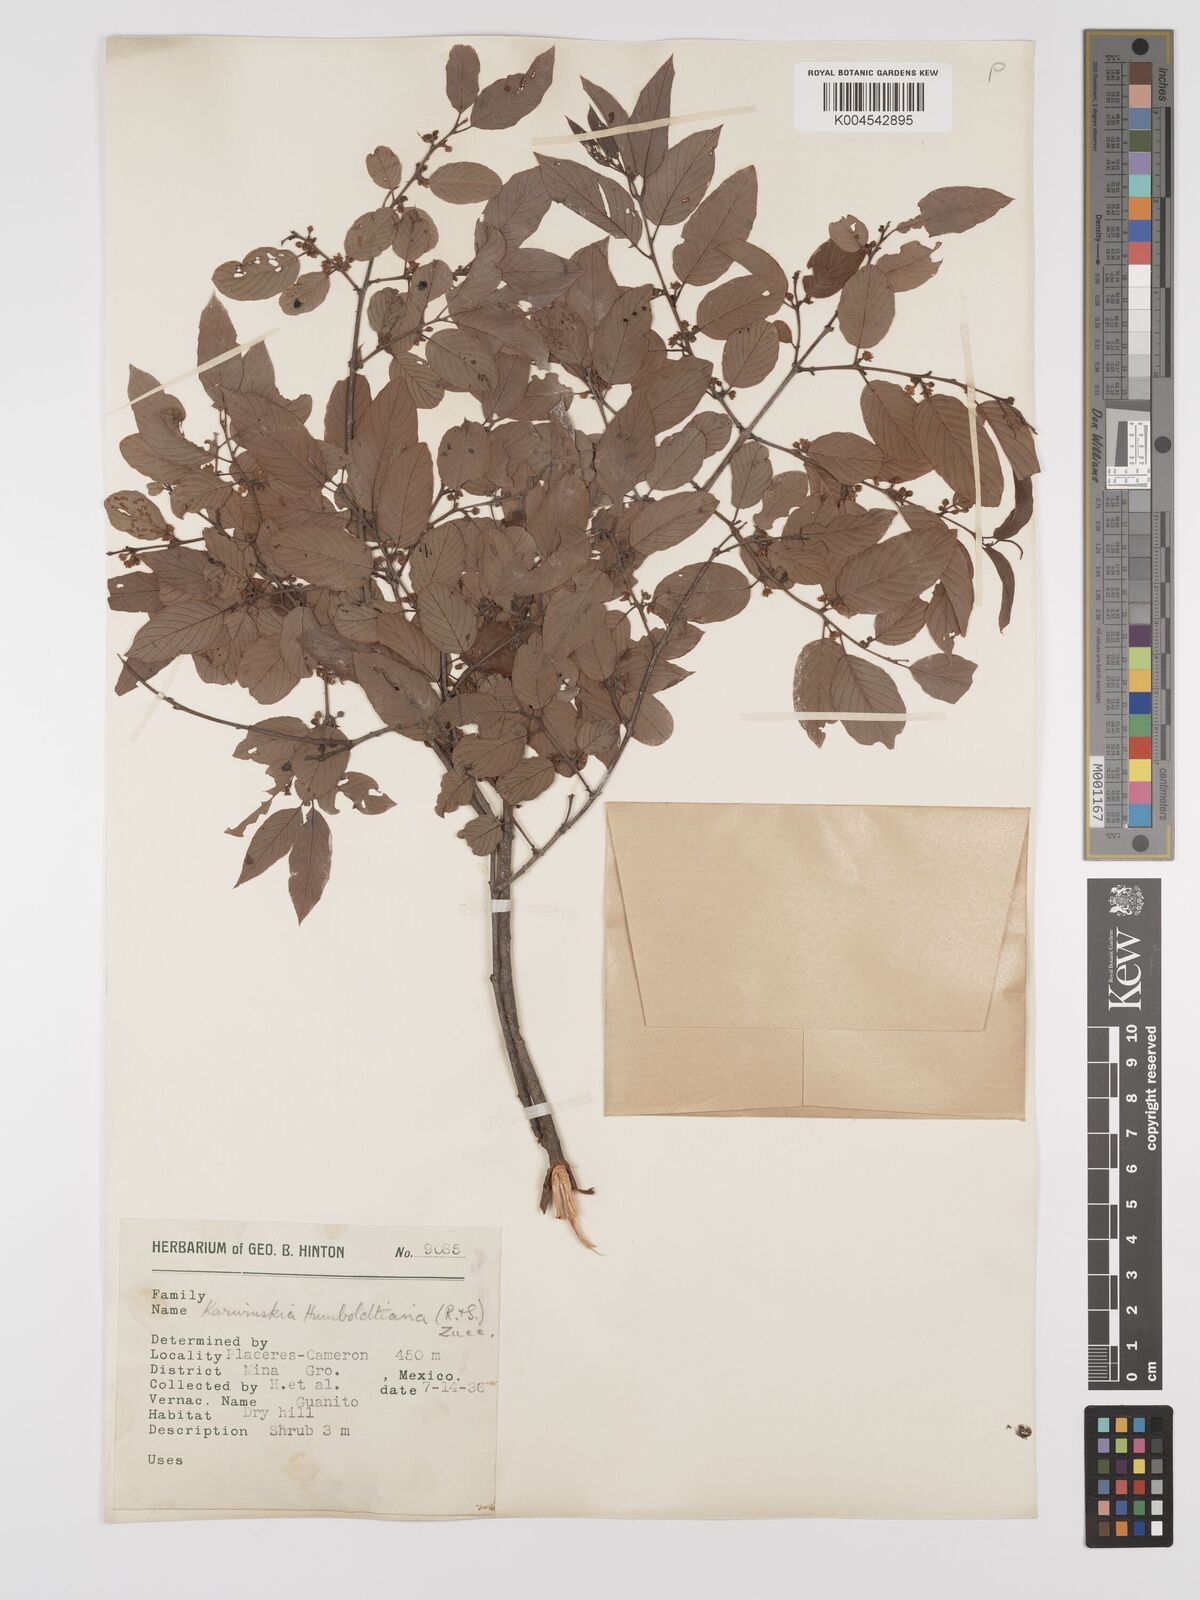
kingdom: Plantae
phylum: Tracheophyta
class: Magnoliopsida
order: Rosales
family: Rhamnaceae
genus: Karwinskia
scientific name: Karwinskia humboldtiana
